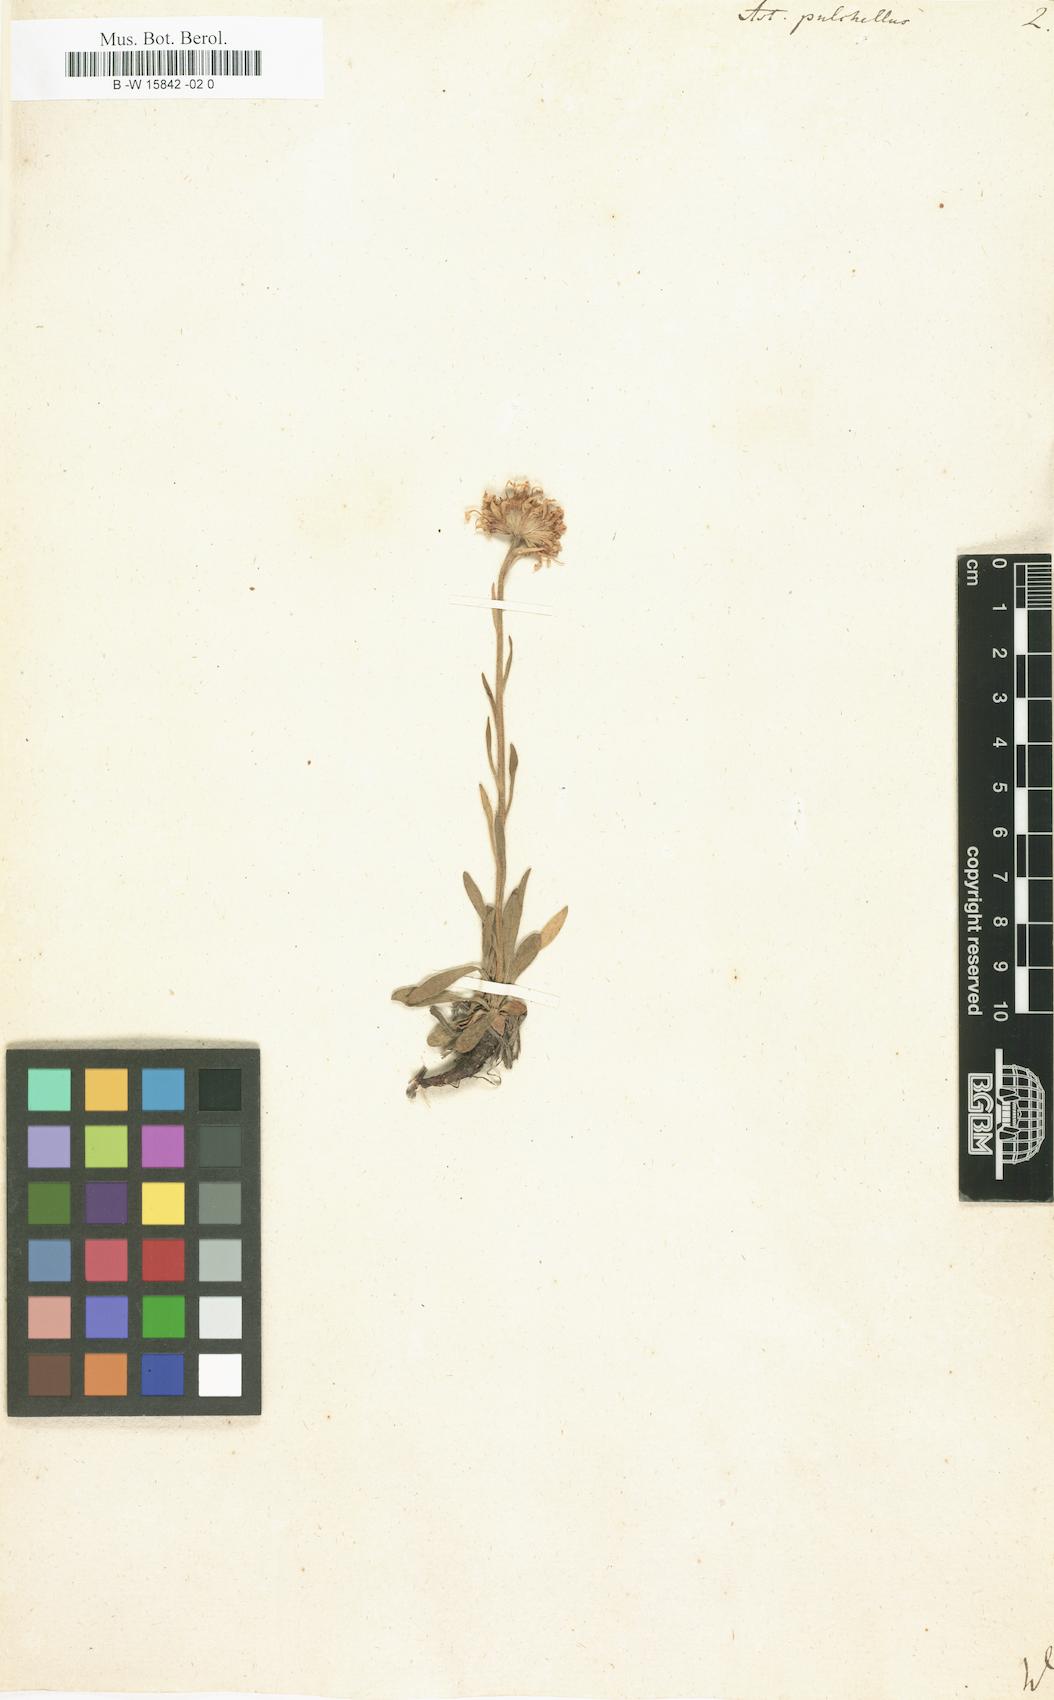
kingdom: Plantae
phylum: Tracheophyta
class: Magnoliopsida
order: Asterales
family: Asteraceae
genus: Erigeron
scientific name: Erigeron caucasicus
